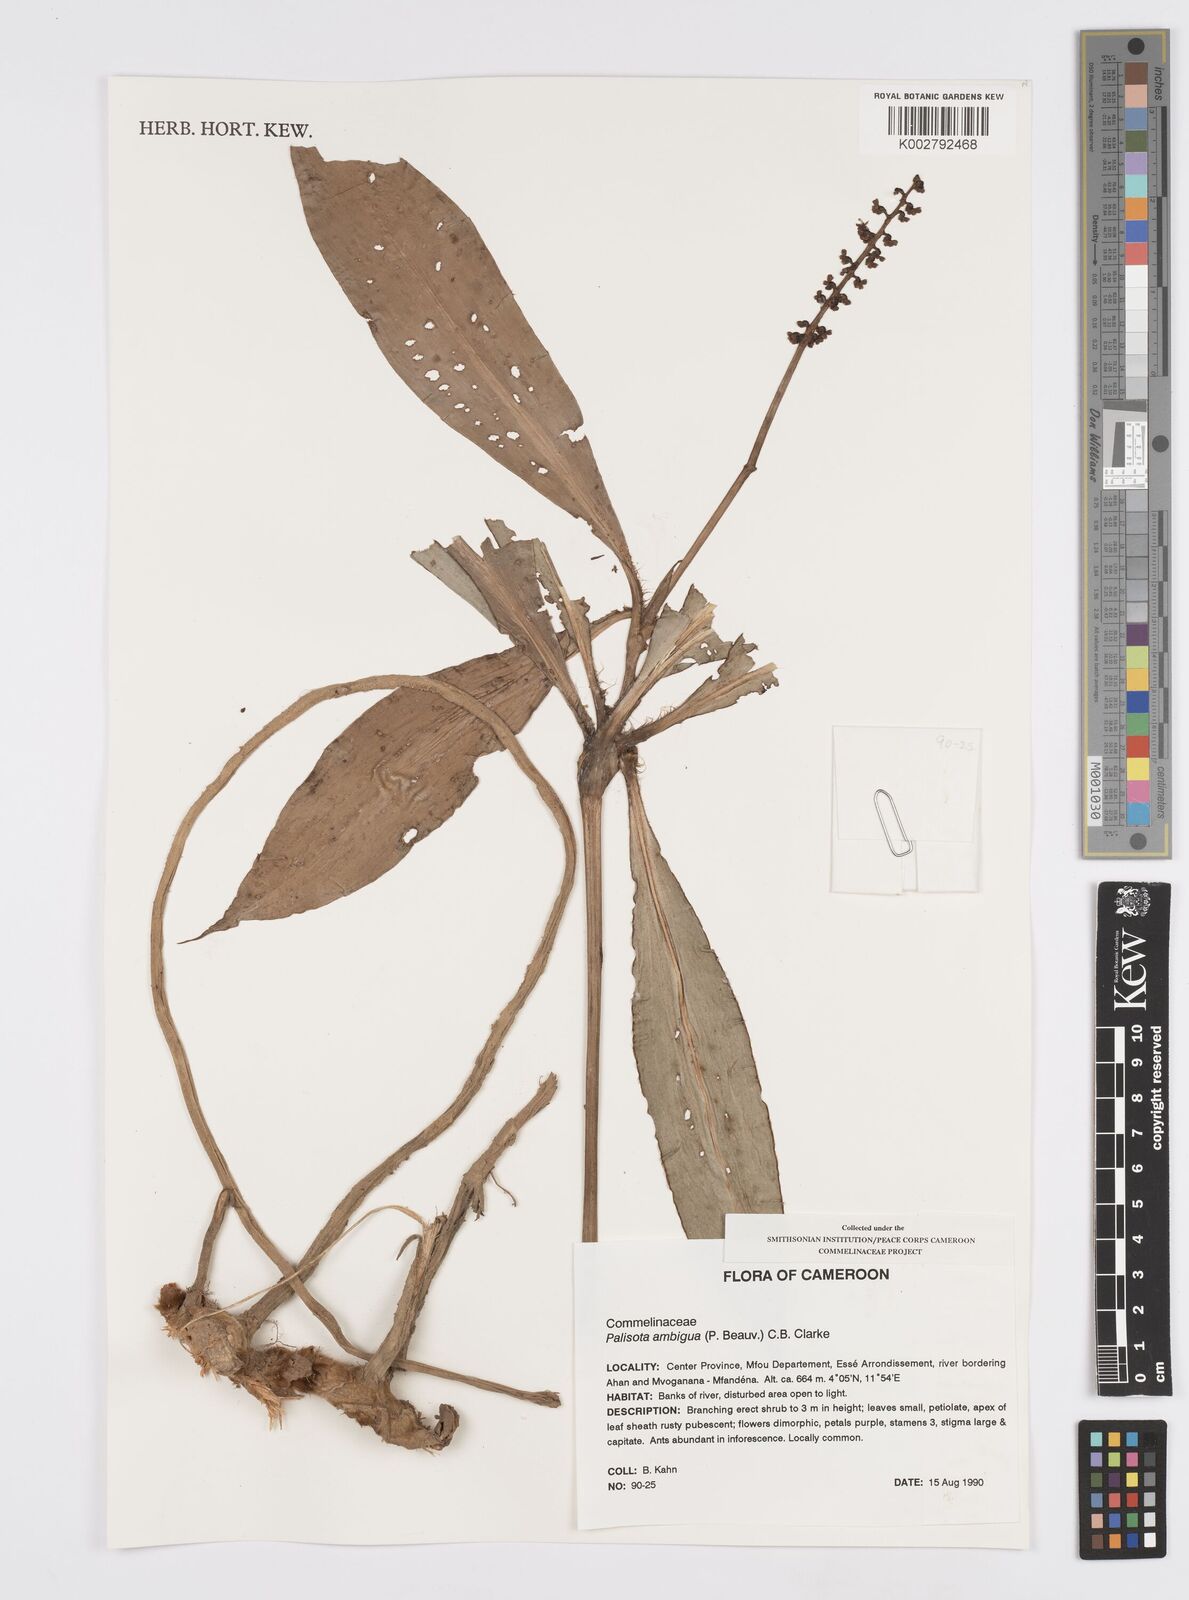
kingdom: Plantae
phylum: Tracheophyta
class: Liliopsida
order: Commelinales
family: Commelinaceae
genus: Palisota
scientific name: Palisota ambigua
